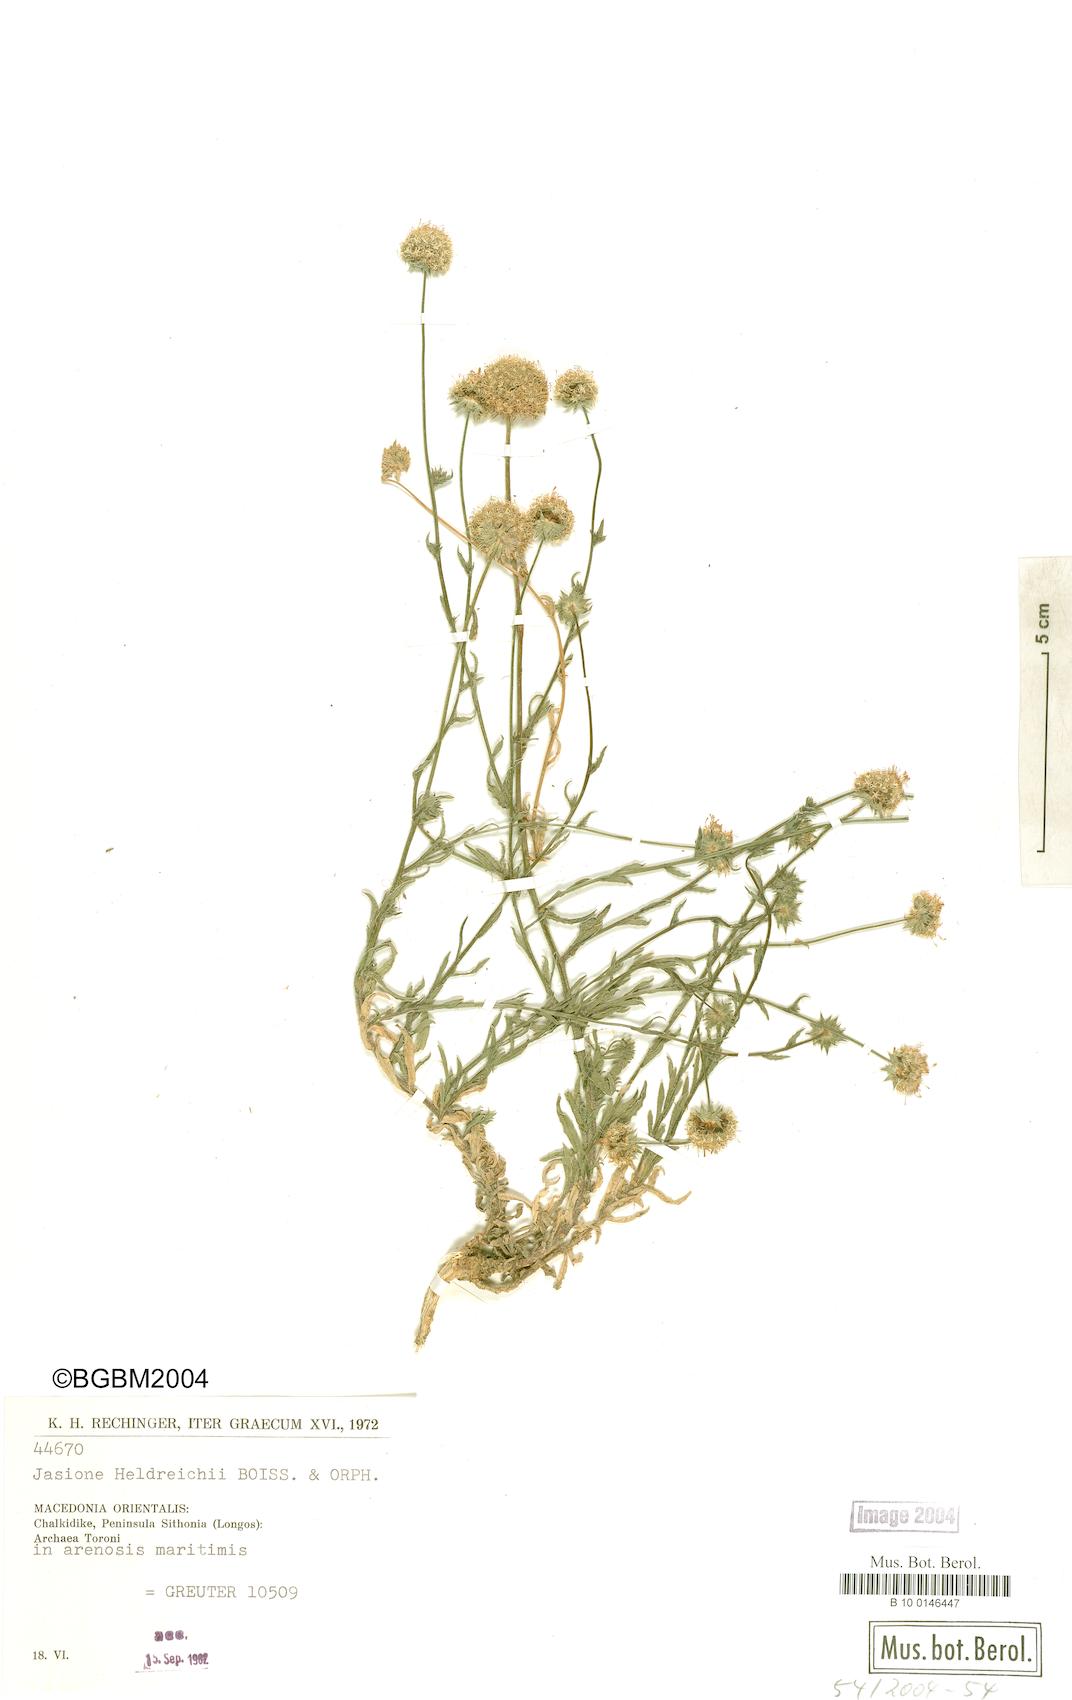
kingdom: Plantae
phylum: Tracheophyta
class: Magnoliopsida
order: Asterales
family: Campanulaceae
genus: Jasione
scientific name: Jasione heldreichii
